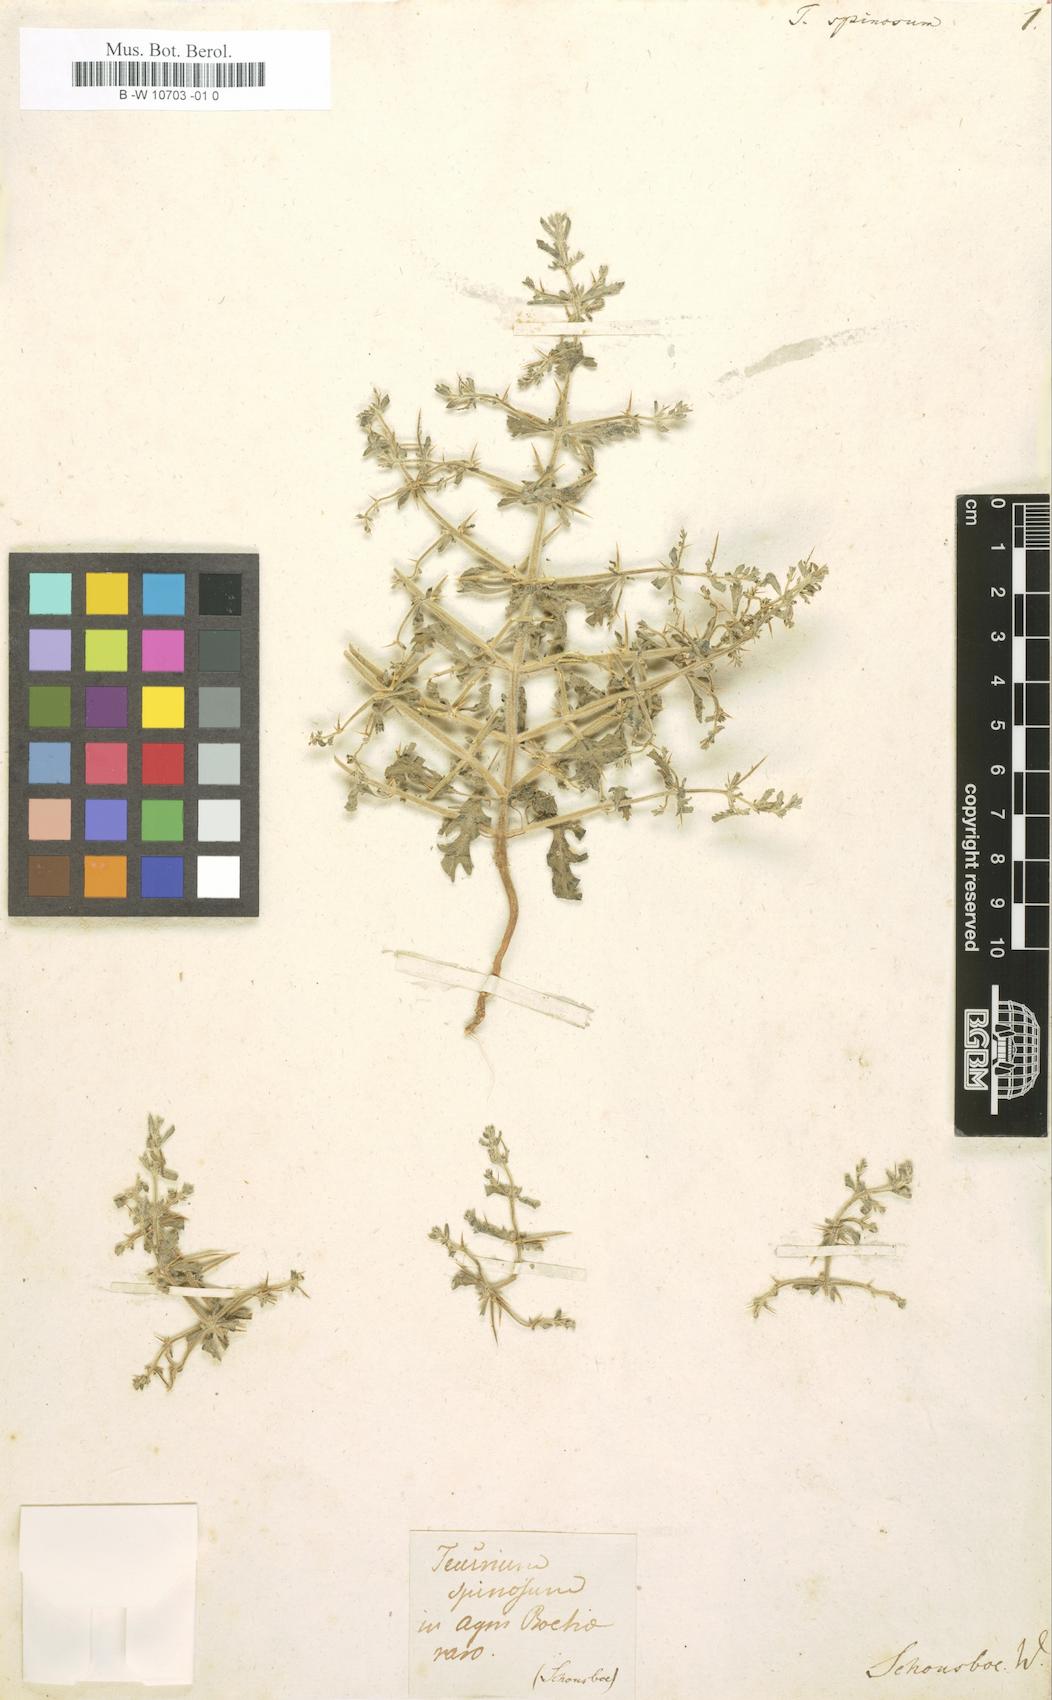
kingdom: Plantae
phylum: Tracheophyta
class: Magnoliopsida
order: Lamiales
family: Lamiaceae
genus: Teucrium
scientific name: Teucrium spinosum
